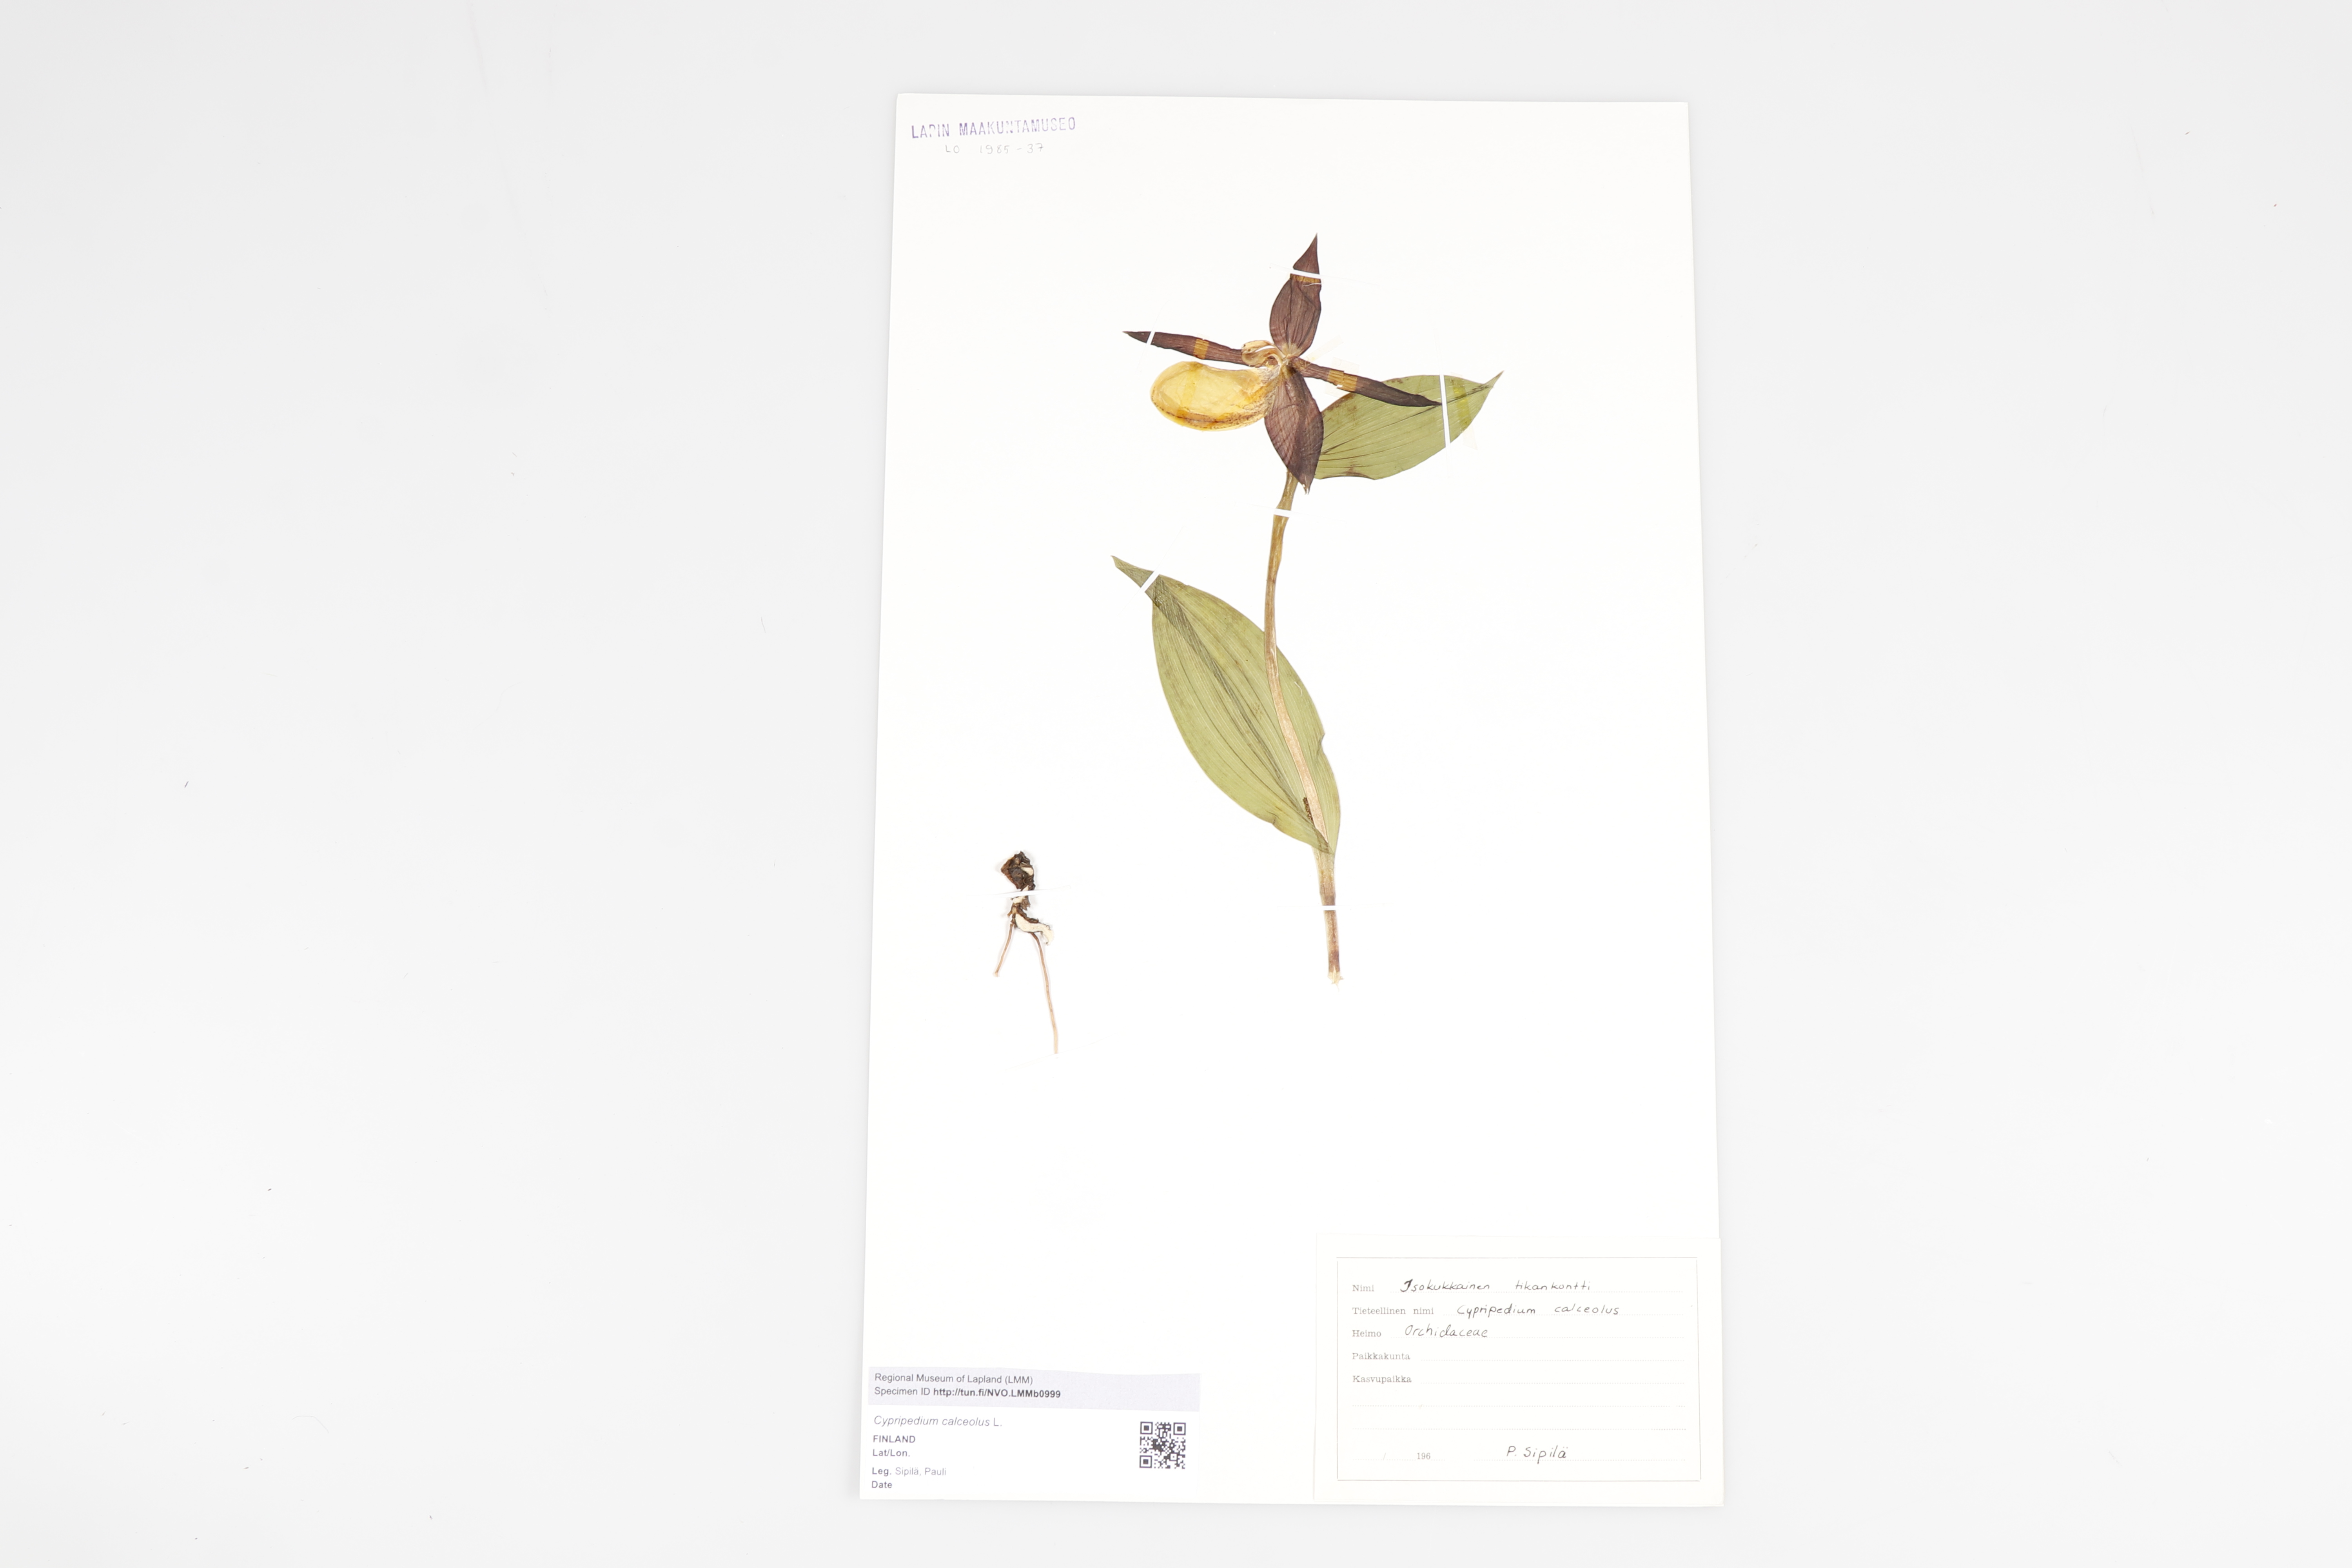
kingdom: Plantae
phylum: Tracheophyta
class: Liliopsida
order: Asparagales
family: Orchidaceae
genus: Cypripedium
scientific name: Cypripedium calceolus
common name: Lady's-slipper
